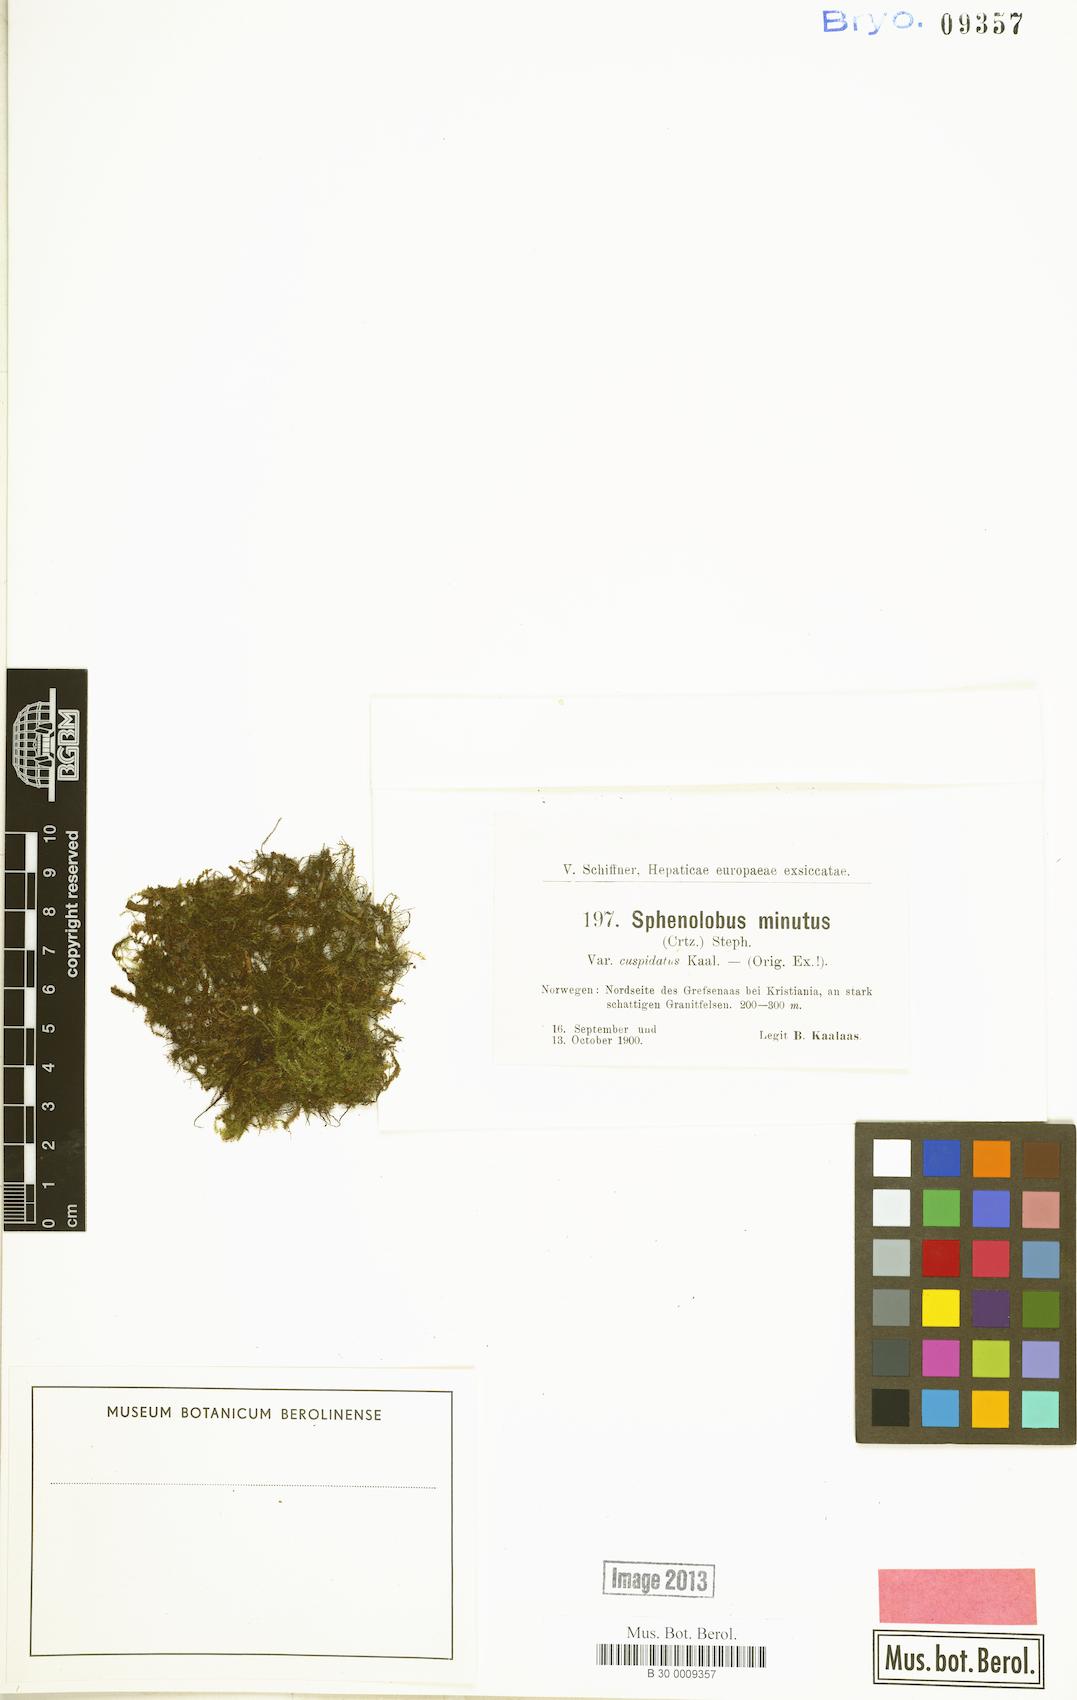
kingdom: Plantae
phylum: Marchantiophyta
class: Jungermanniopsida
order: Jungermanniales
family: Anastrophyllaceae
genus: Sphenolobus
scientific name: Sphenolobus minutus
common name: Comb notchwort
